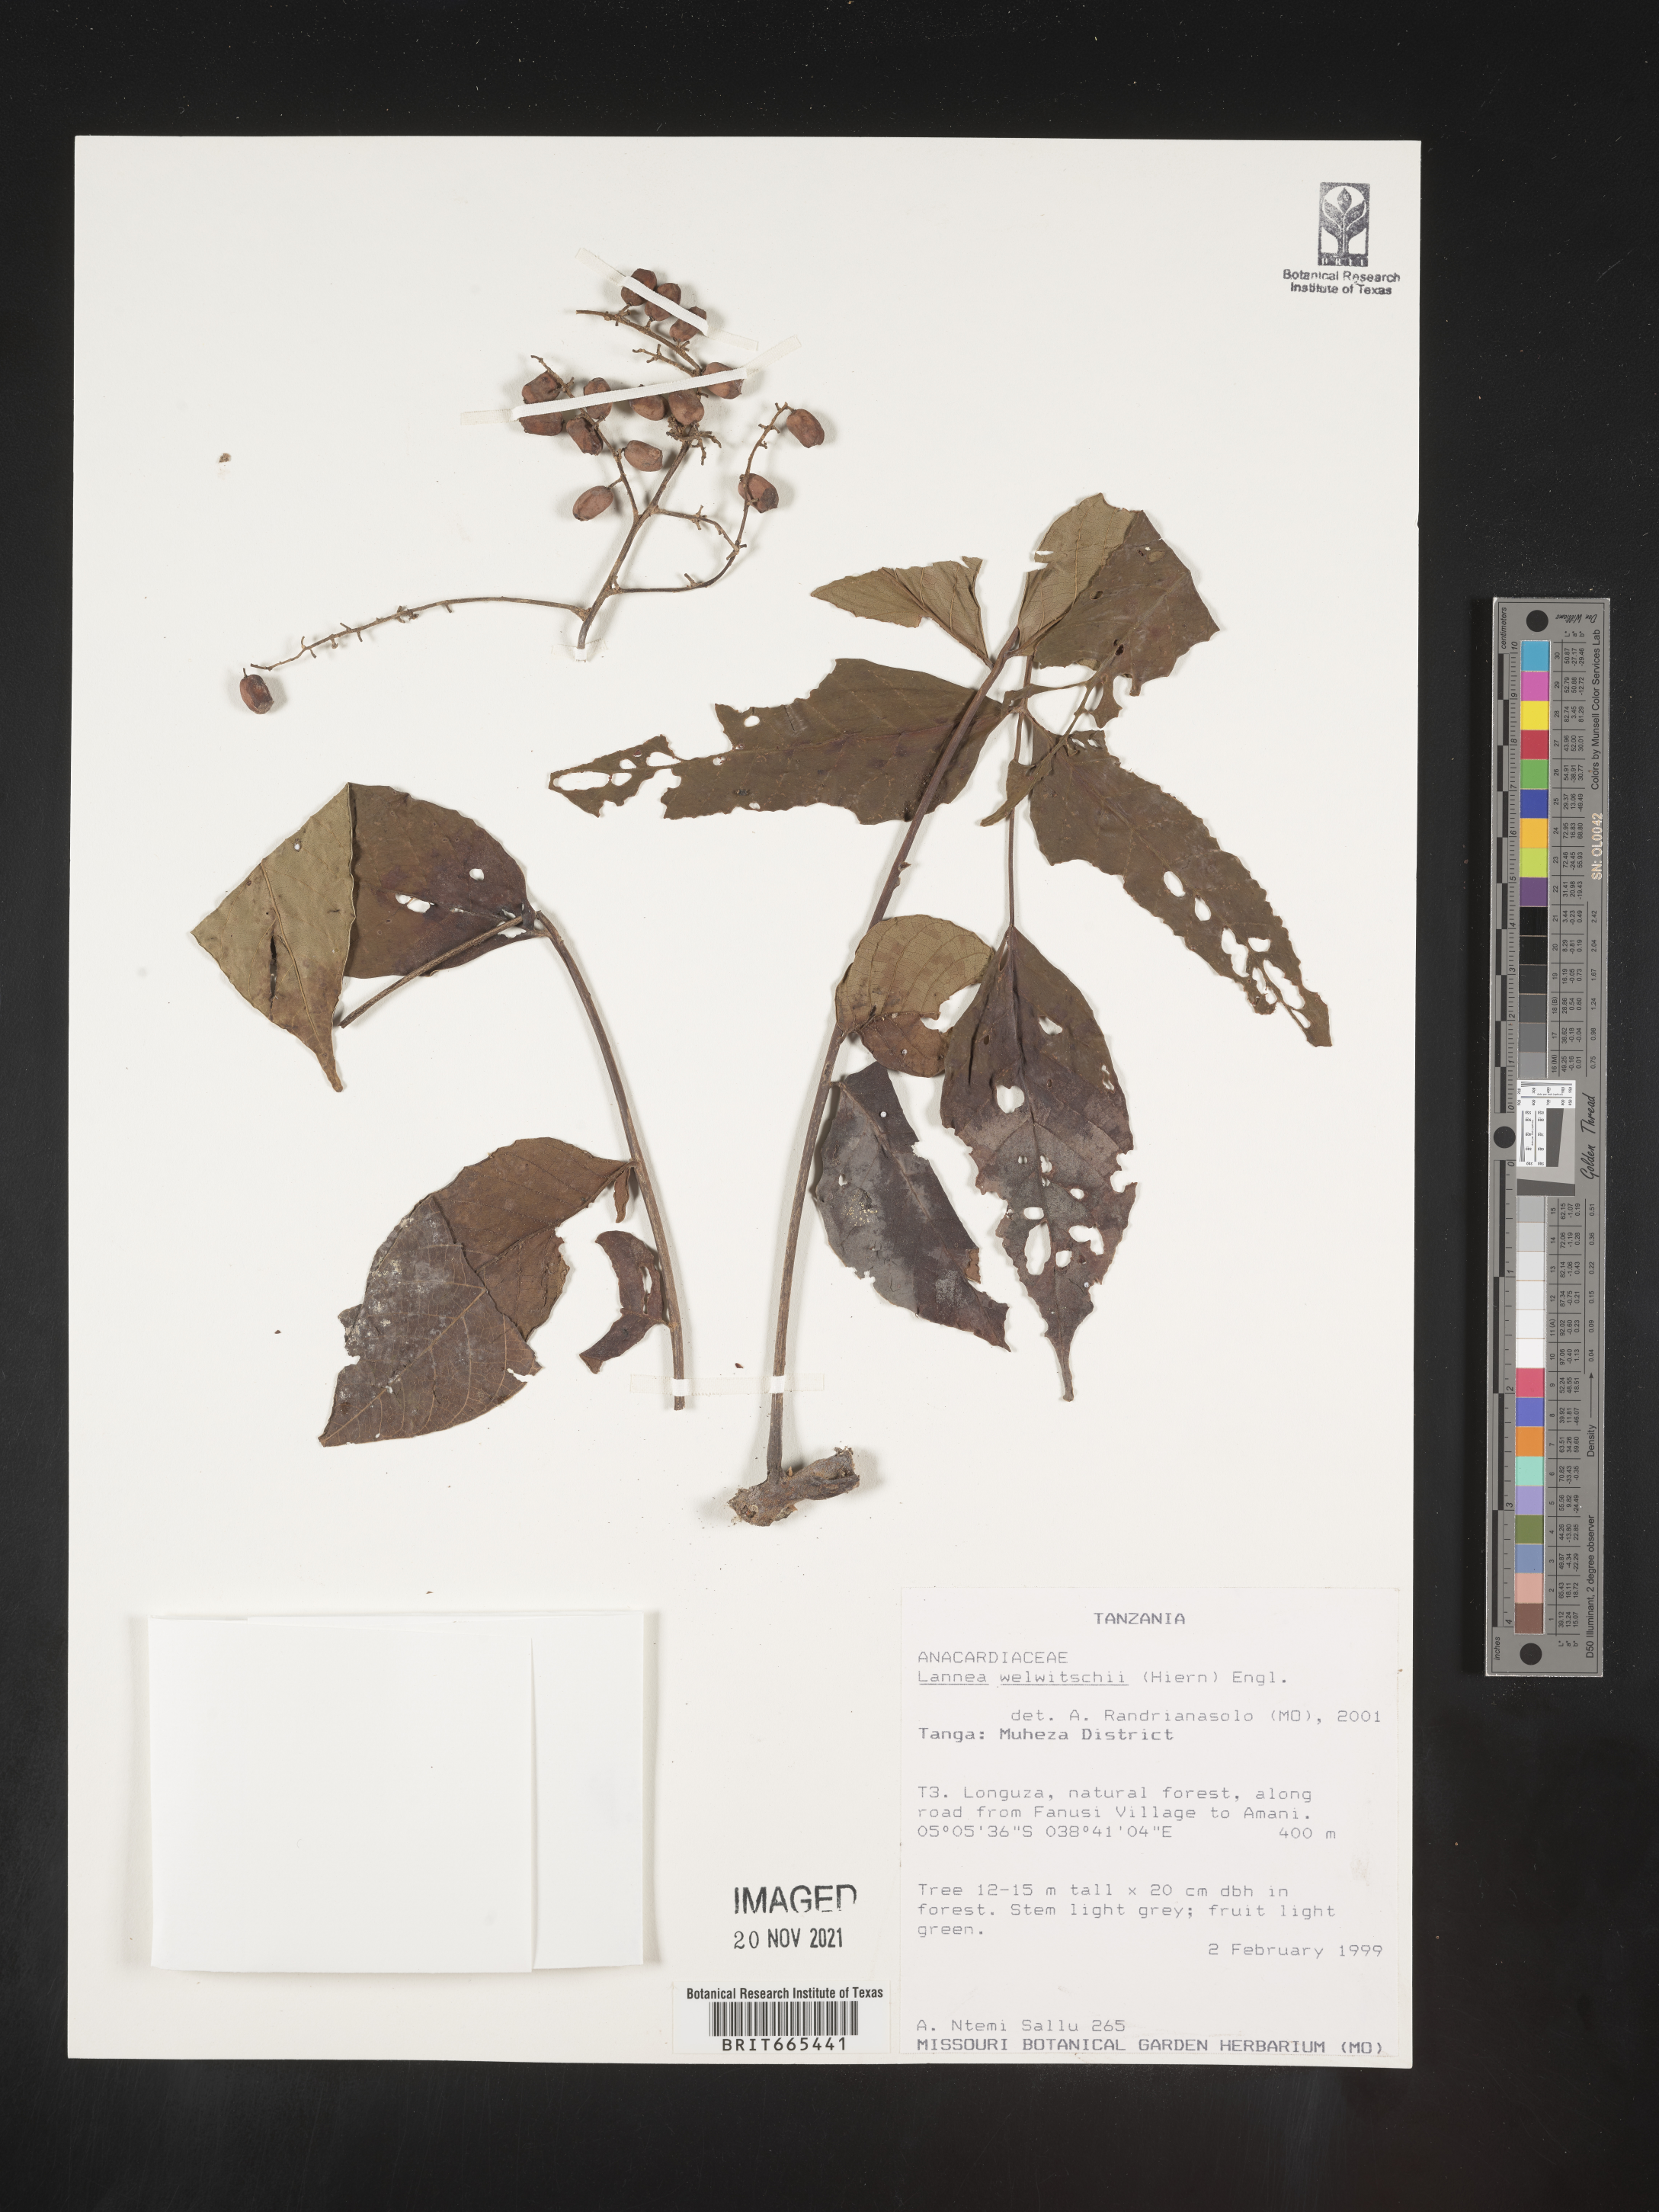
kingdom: Plantae
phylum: Tracheophyta
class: Magnoliopsida
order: Sapindales
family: Anacardiaceae
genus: Lannea
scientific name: Lannea
